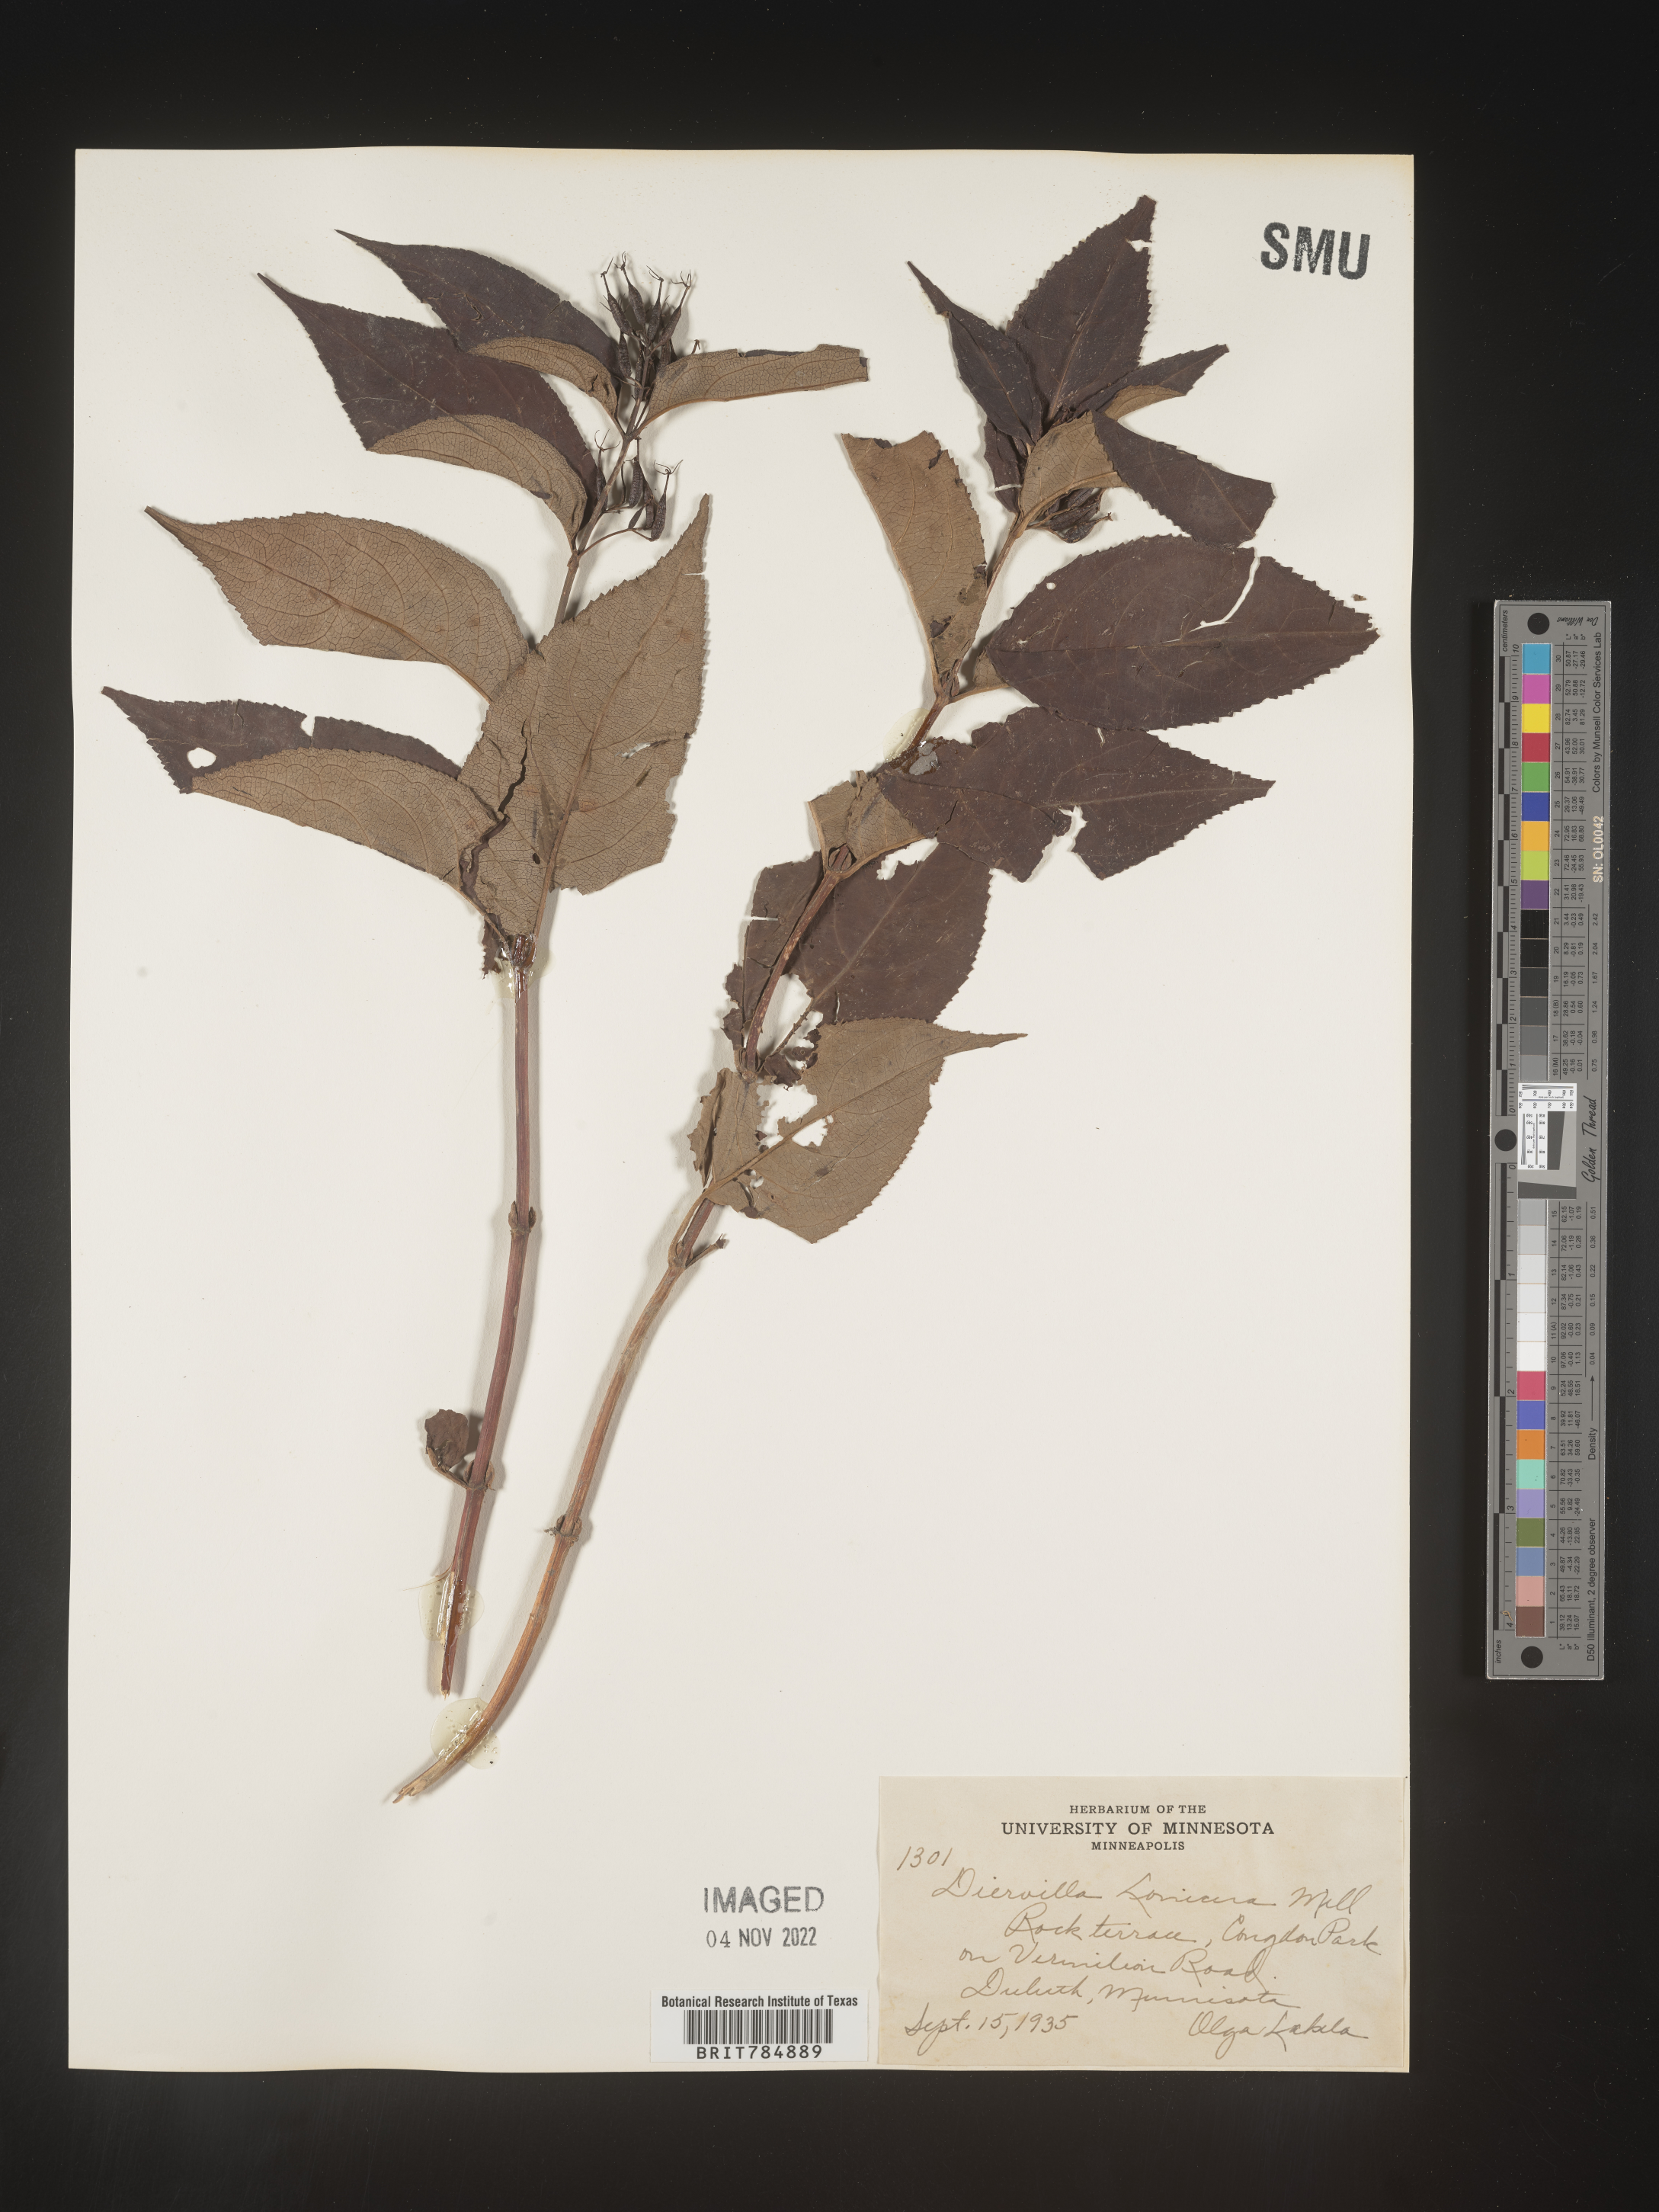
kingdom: Plantae
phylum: Tracheophyta
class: Magnoliopsida
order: Dipsacales
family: Caprifoliaceae
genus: Diervilla
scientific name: Diervilla lonicera
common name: Bush-honeysuckle
